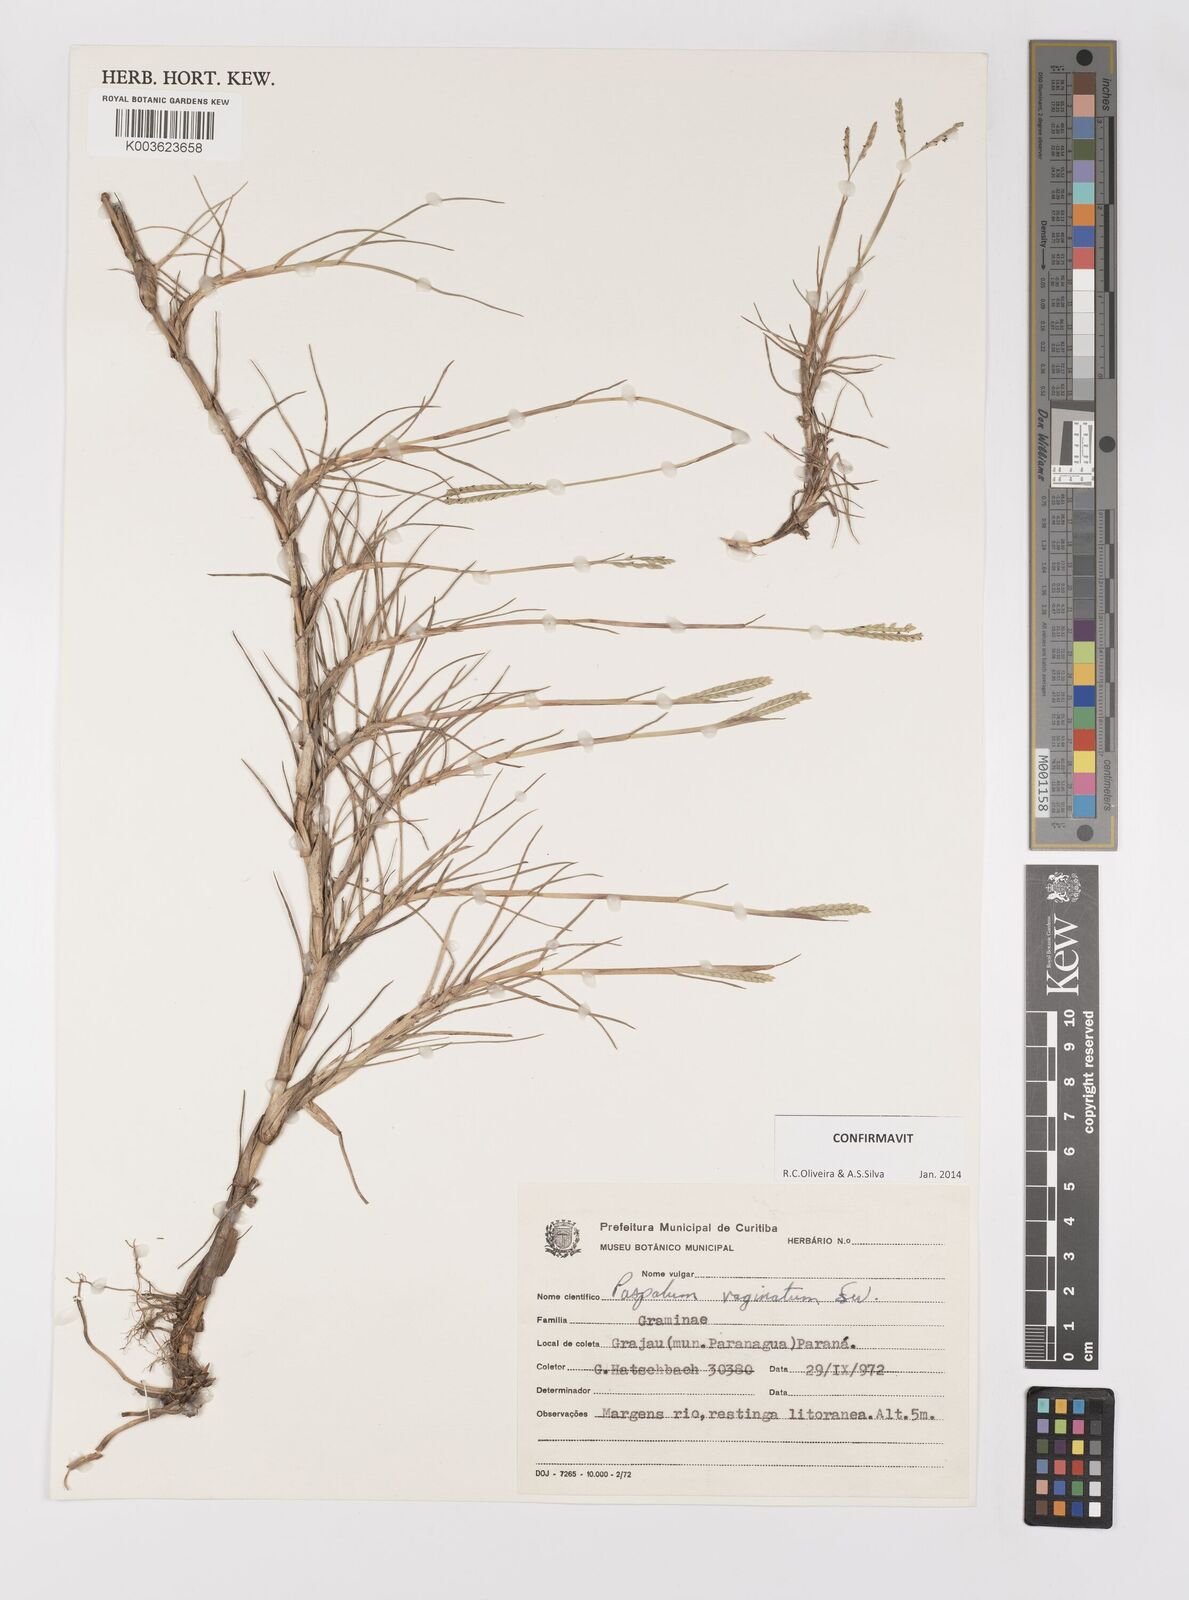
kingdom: Plantae
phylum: Tracheophyta
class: Liliopsida
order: Poales
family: Poaceae
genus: Paspalum
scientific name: Paspalum vaginatum
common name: Seashore paspalum
